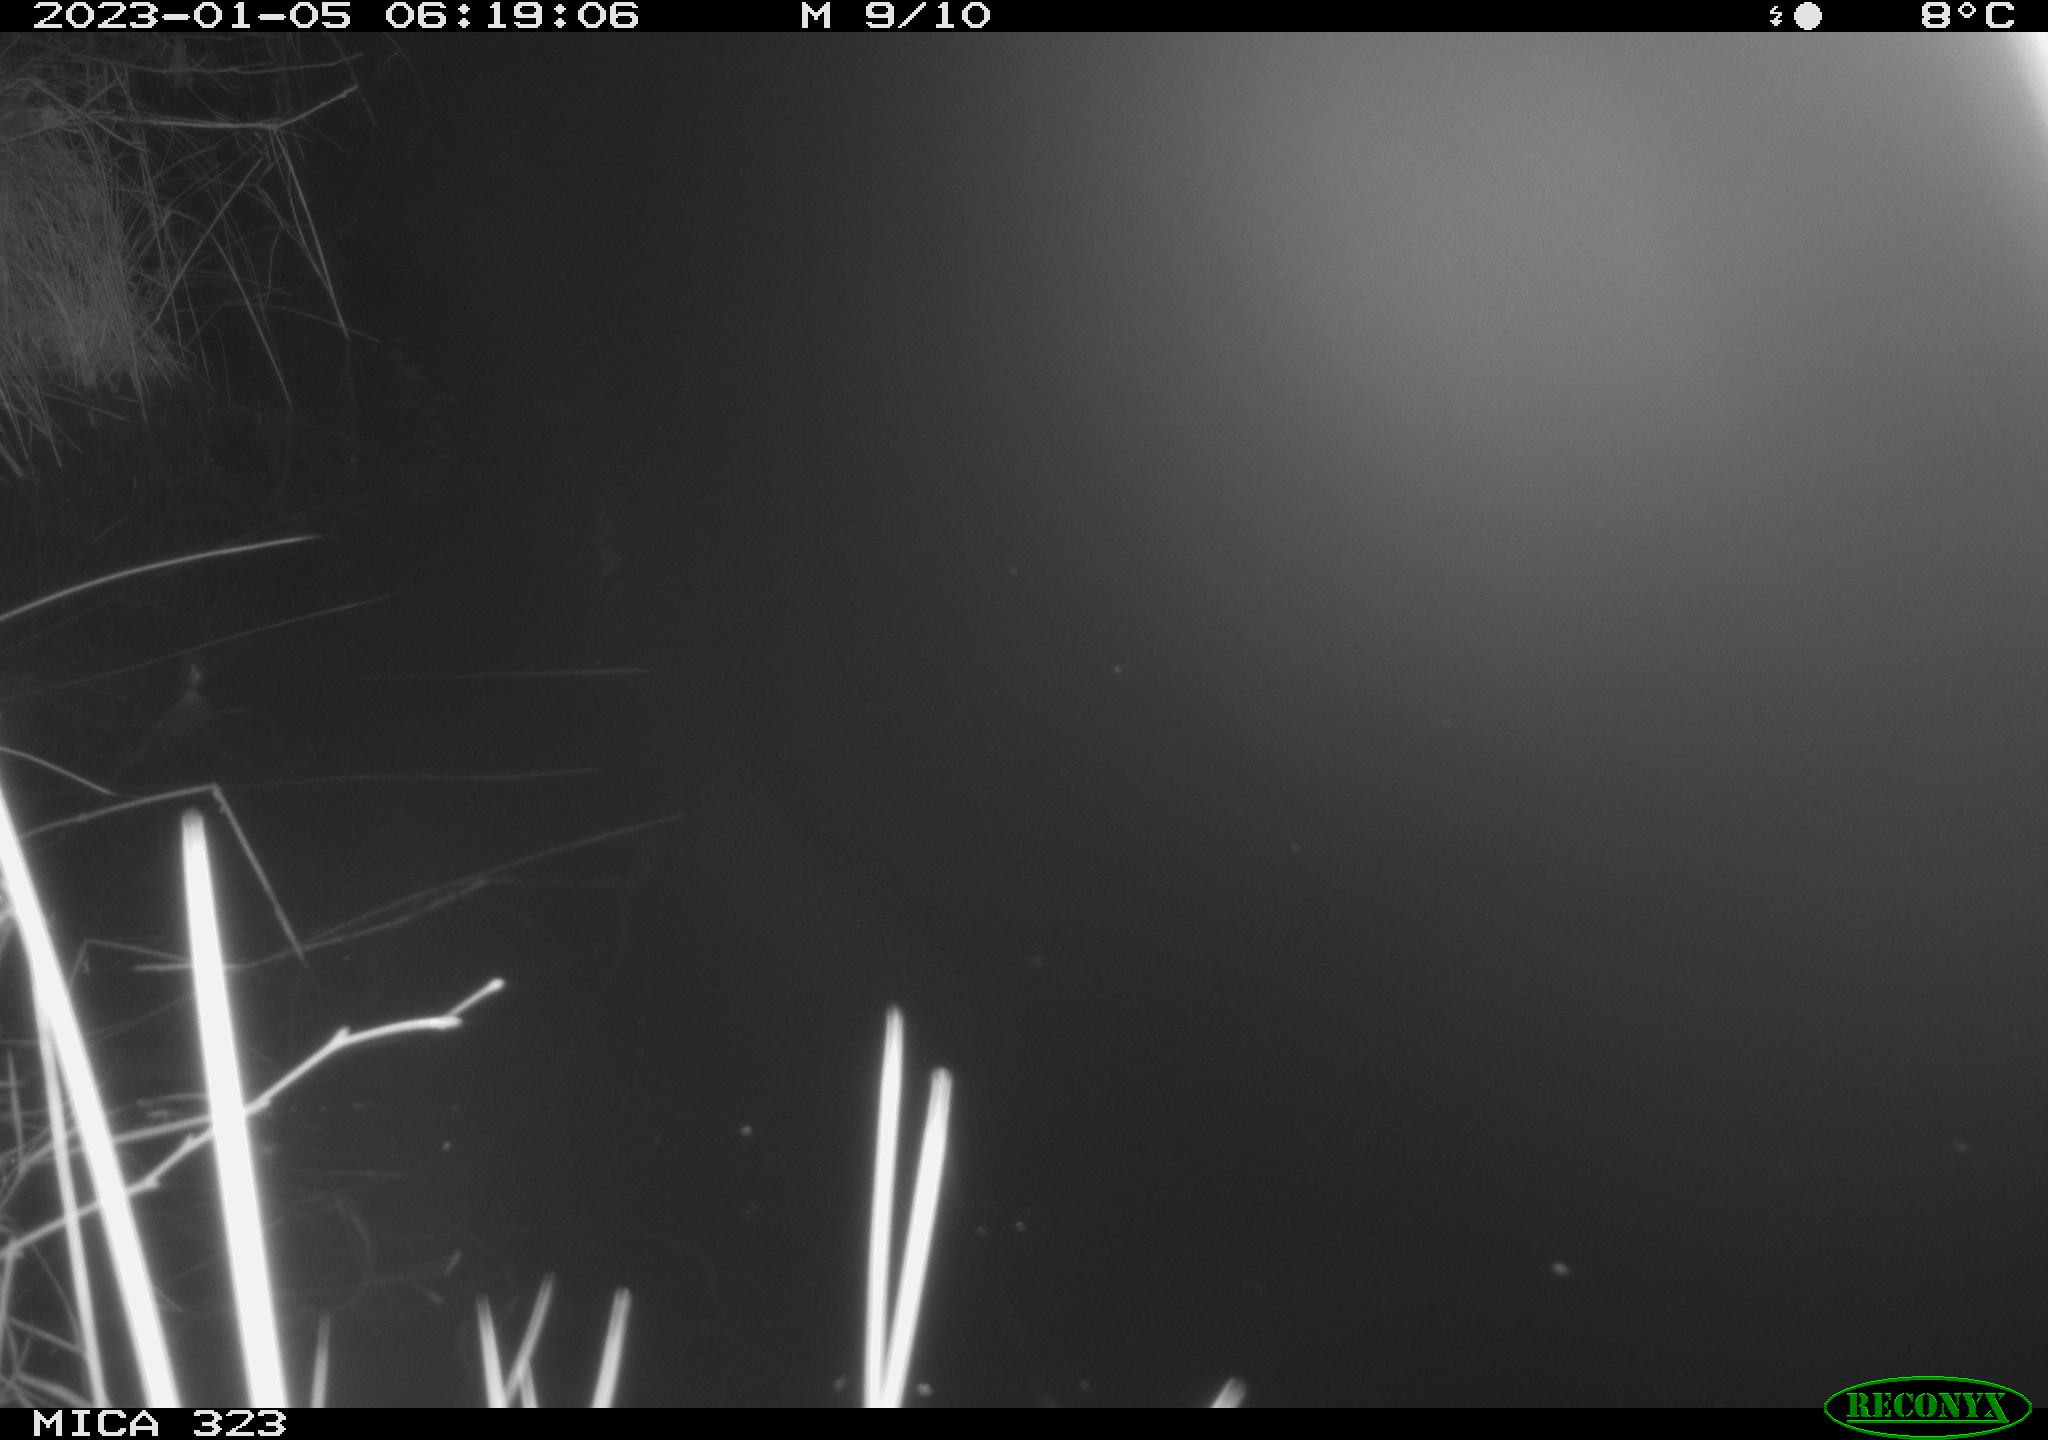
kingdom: Animalia
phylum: Chordata
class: Mammalia
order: Rodentia
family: Cricetidae
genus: Ondatra
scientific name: Ondatra zibethicus
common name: Muskrat
